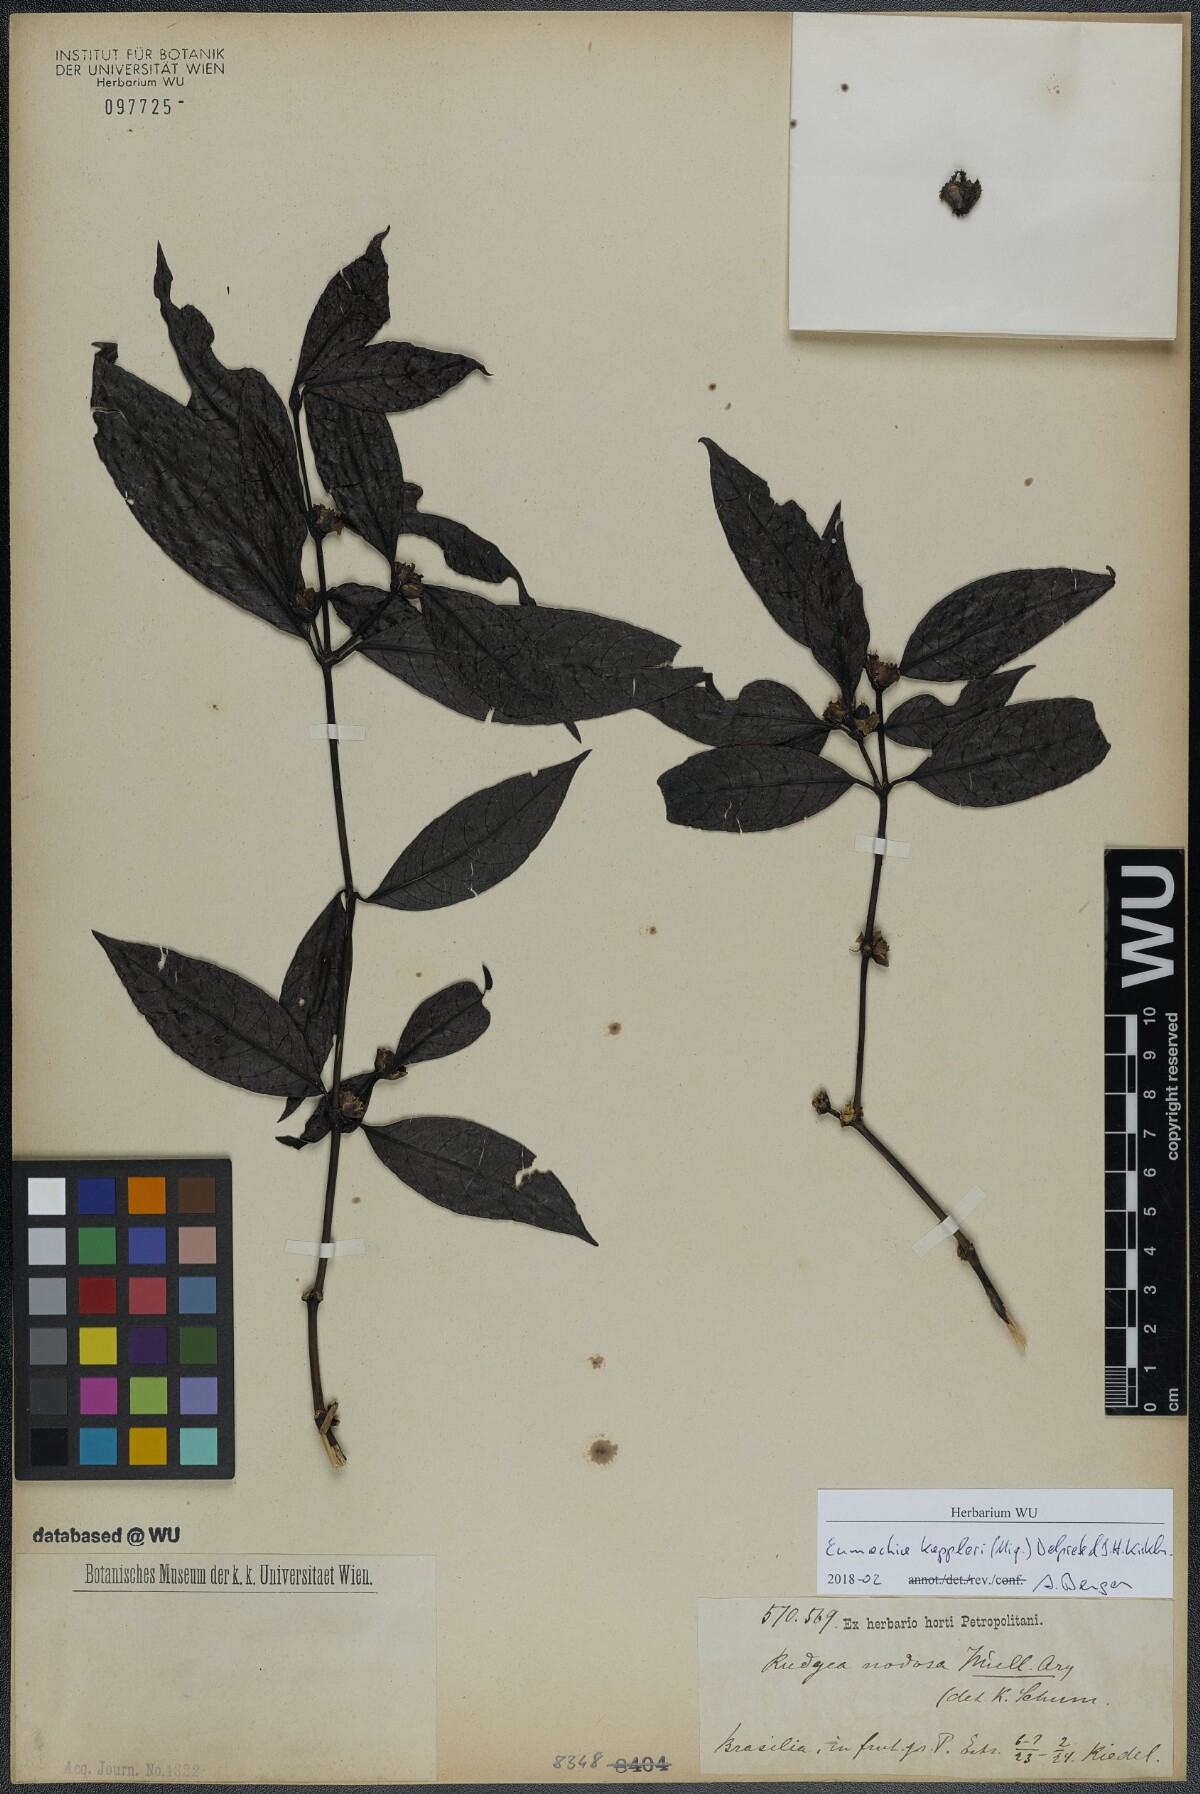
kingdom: Plantae
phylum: Tracheophyta
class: Magnoliopsida
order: Gentianales
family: Rubiaceae
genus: Eumachia
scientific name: Eumachia kappleri
